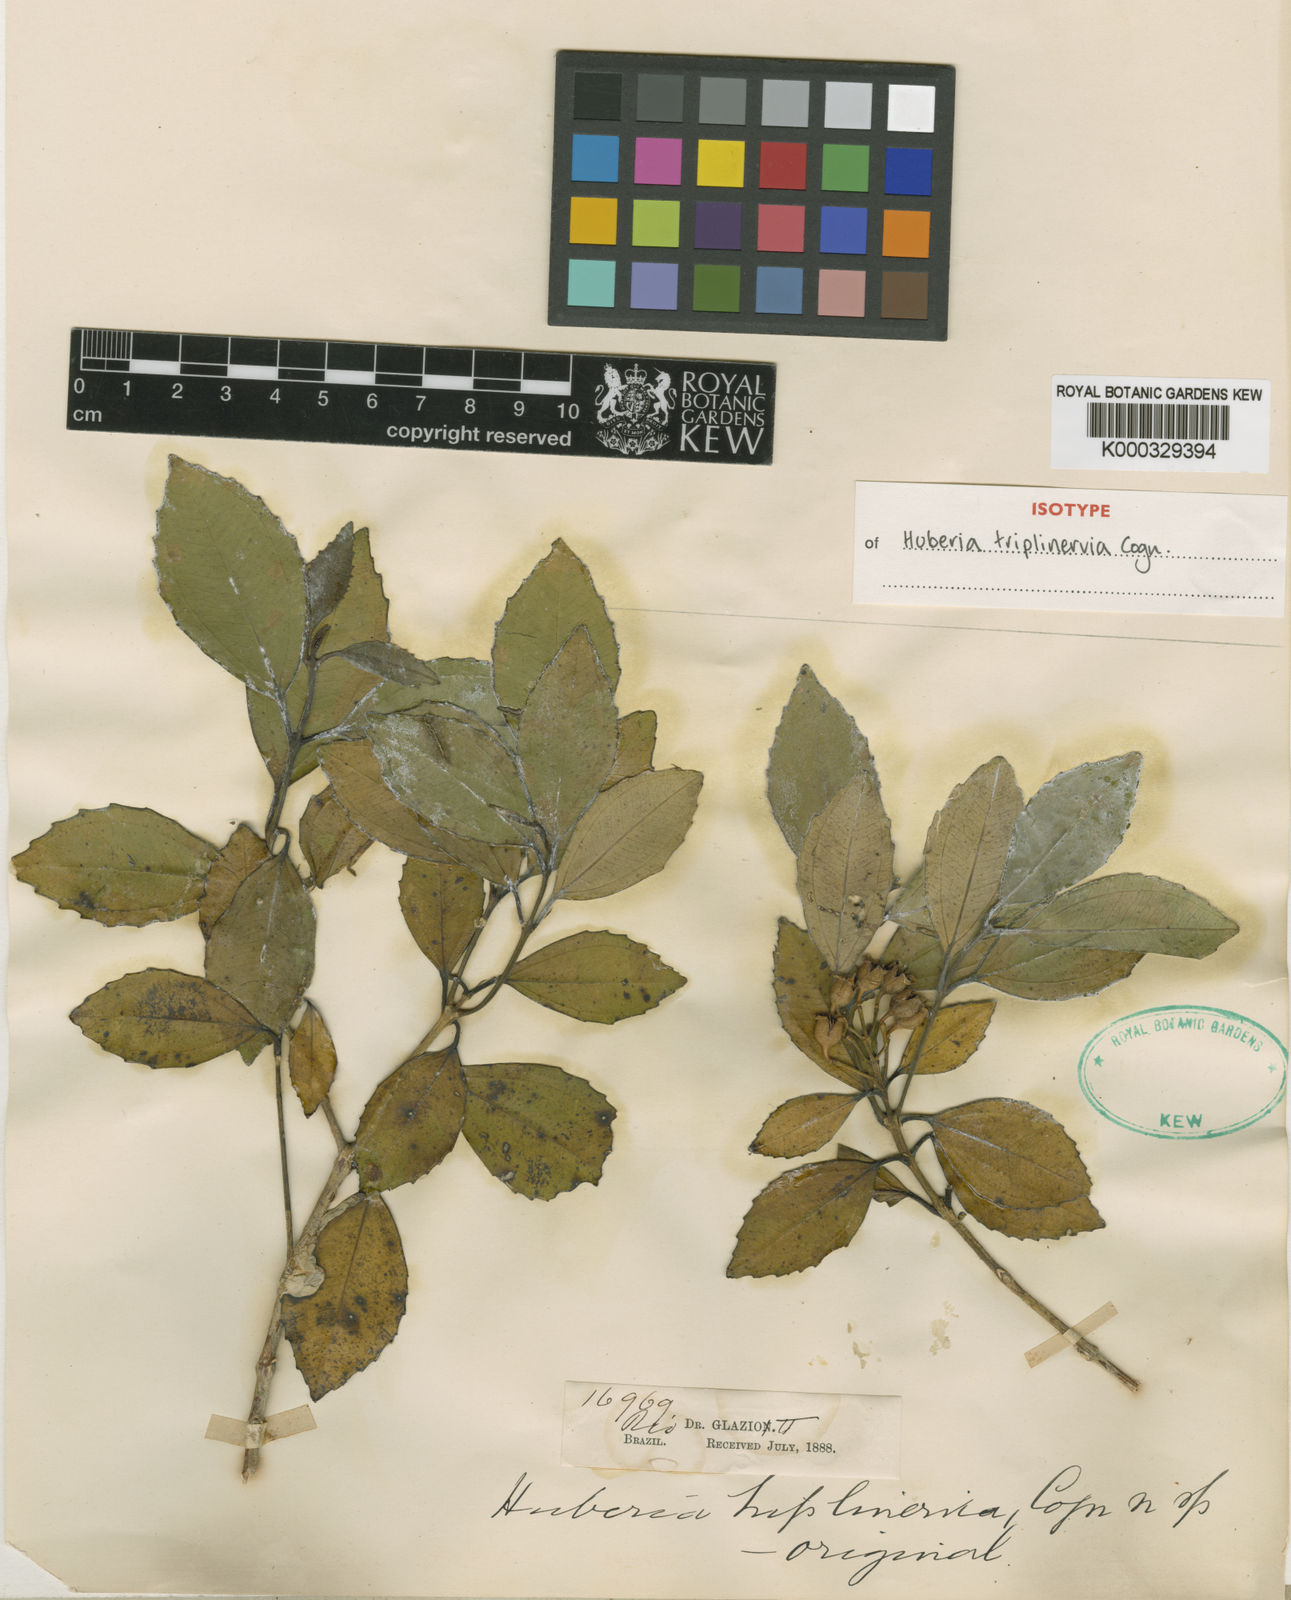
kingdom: Plantae
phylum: Tracheophyta
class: Magnoliopsida
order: Myrtales
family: Melastomataceae
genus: Huberia
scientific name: Huberia triplinervis
